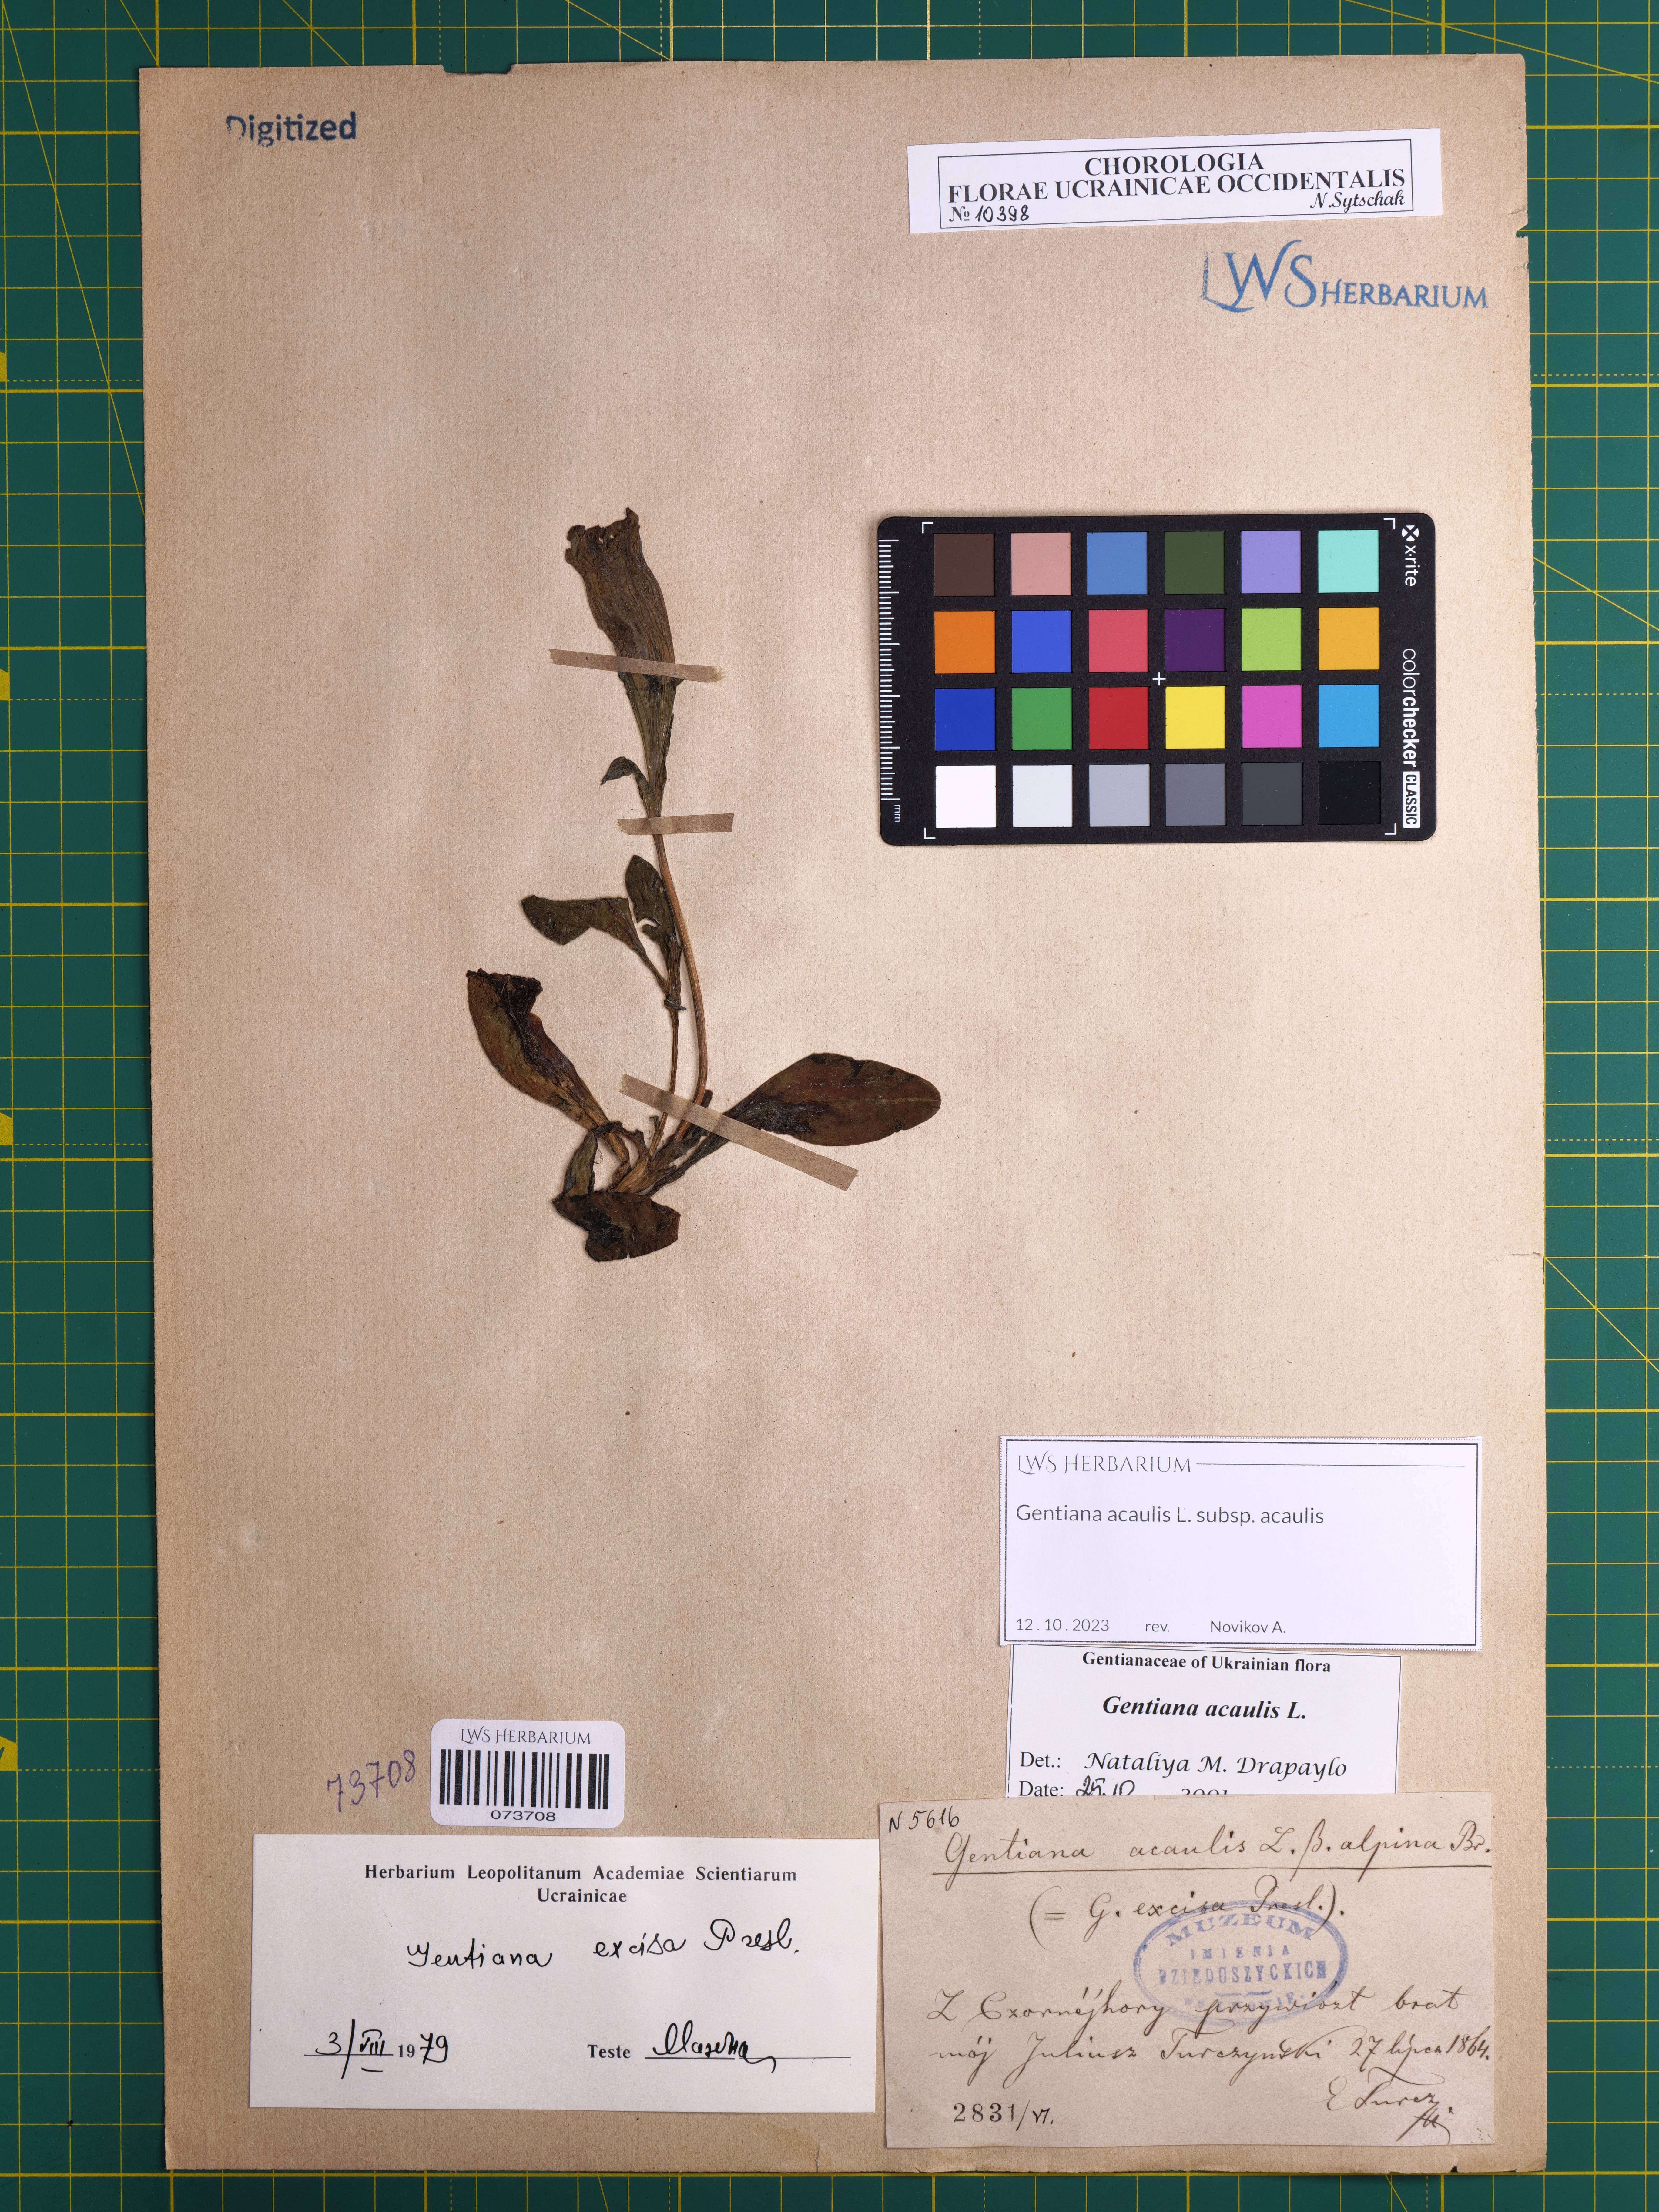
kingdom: Plantae
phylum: Tracheophyta
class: Magnoliopsida
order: Gentianales
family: Gentianaceae
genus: Gentiana
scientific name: Gentiana acaulis
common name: Trumpet gentian
